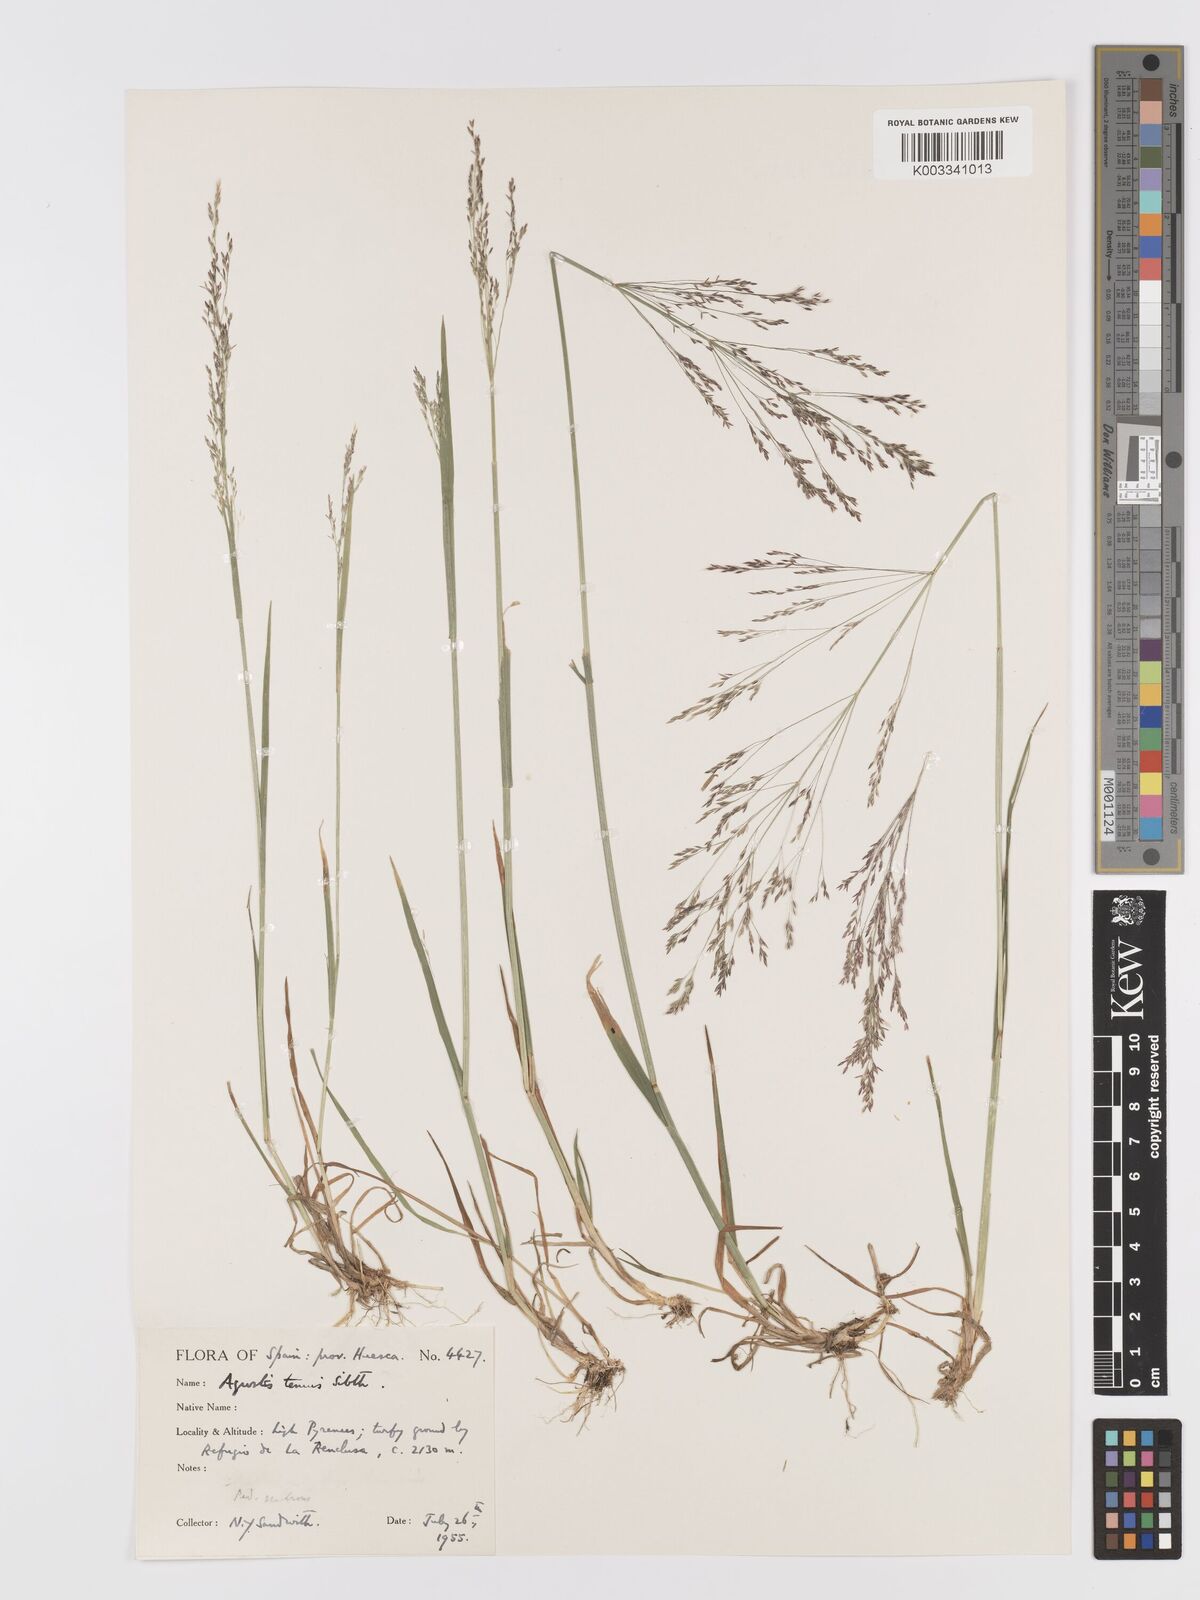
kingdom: Plantae
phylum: Tracheophyta
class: Liliopsida
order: Poales
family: Poaceae
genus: Agrostis
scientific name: Agrostis capillaris
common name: Colonial bentgrass
